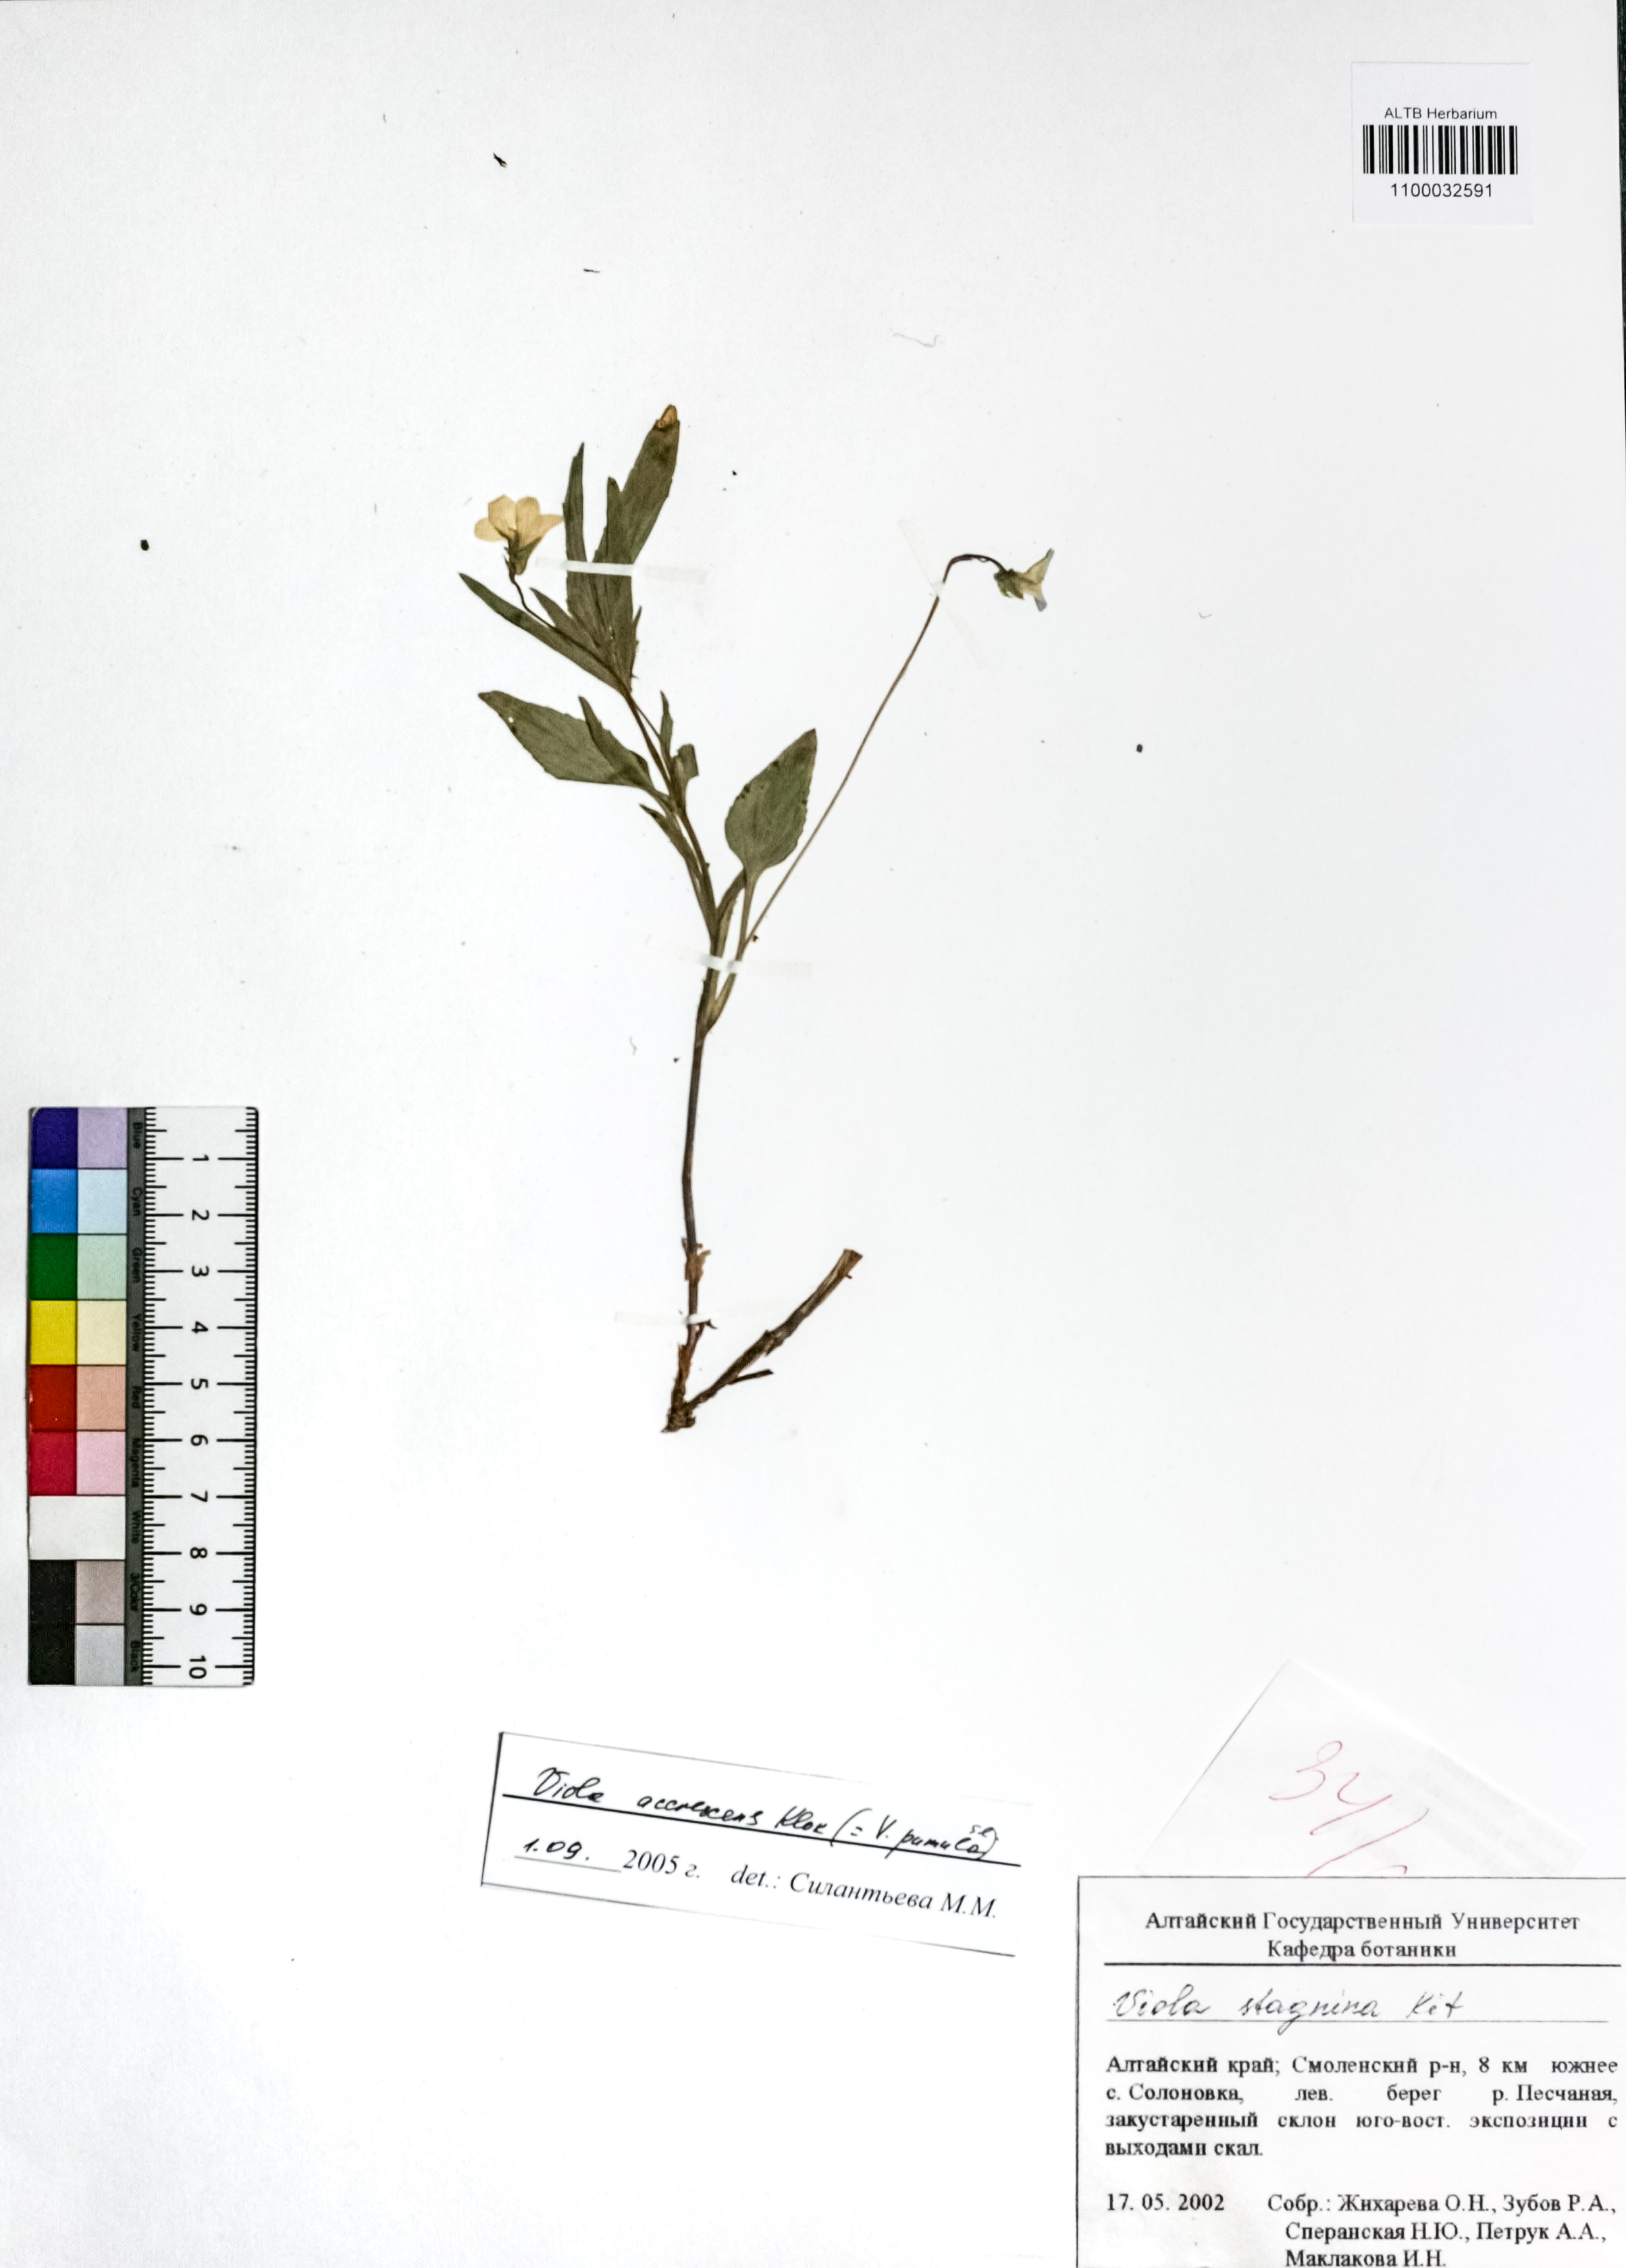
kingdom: Plantae
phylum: Tracheophyta
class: Magnoliopsida
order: Malpighiales
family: Violaceae
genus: Viola
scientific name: Viola pumila
